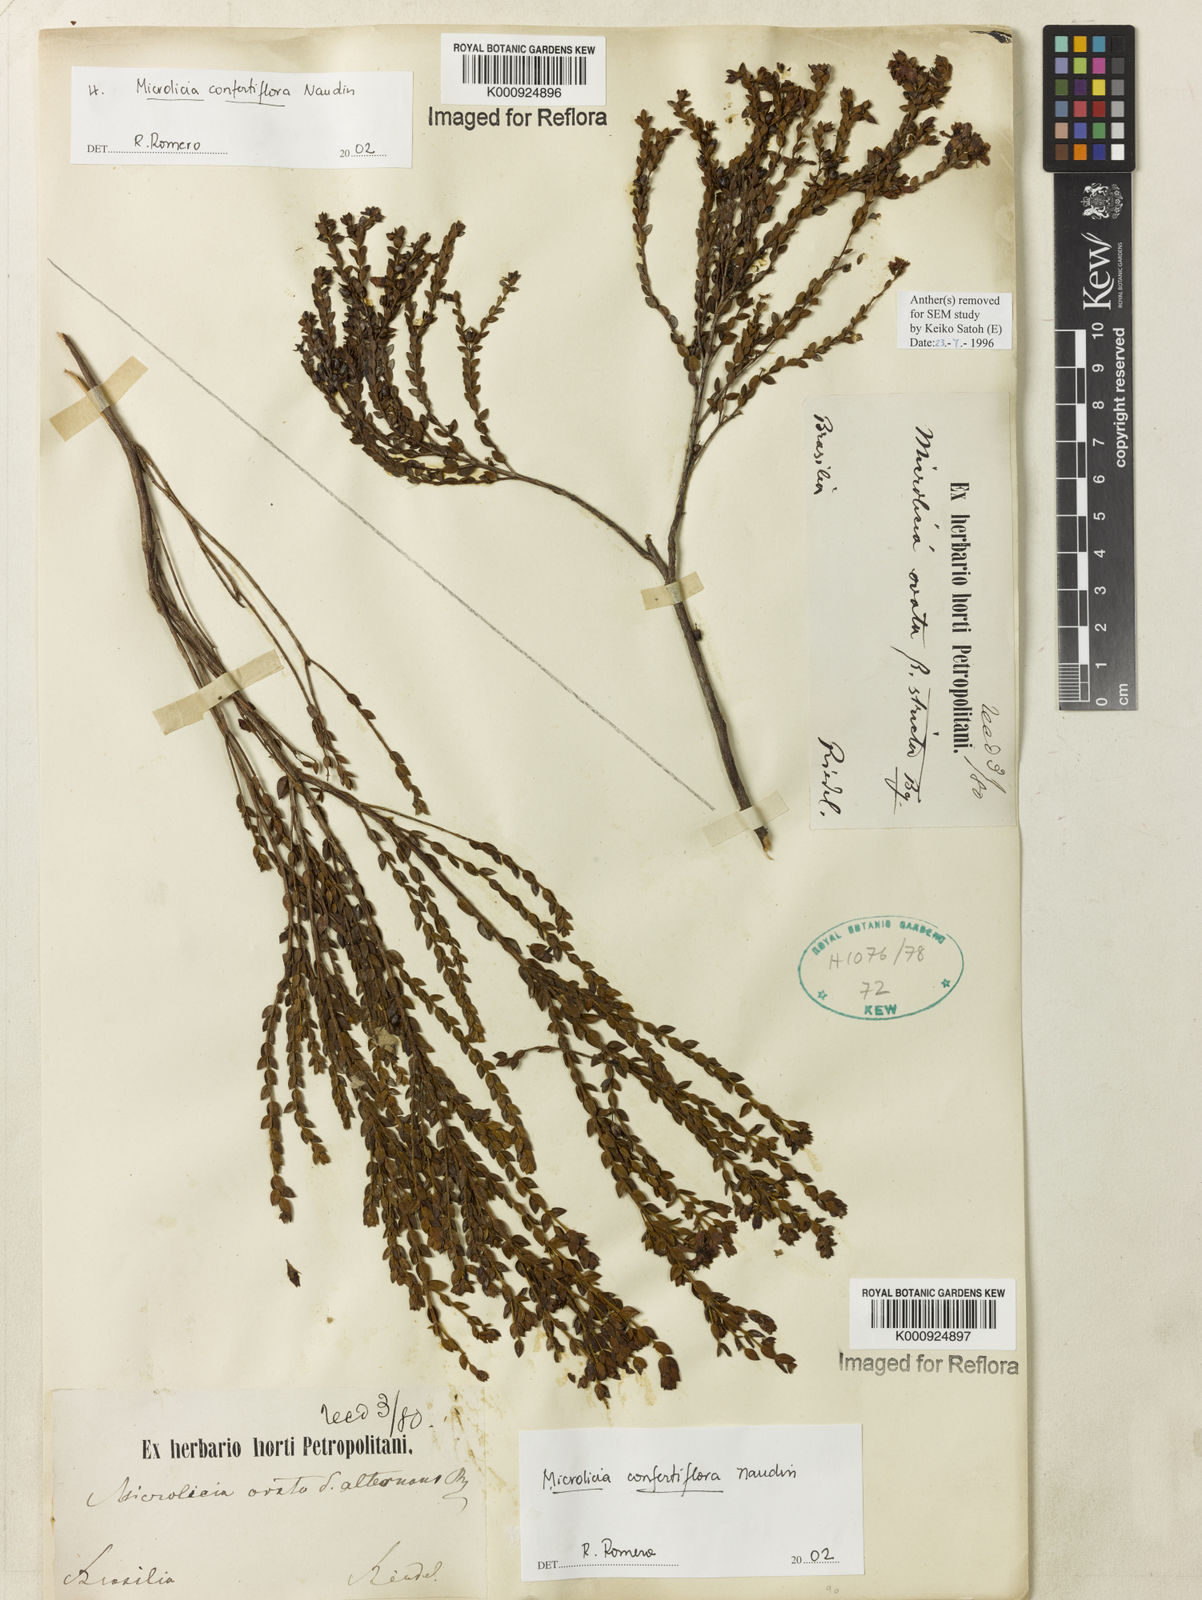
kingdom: Plantae
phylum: Tracheophyta
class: Magnoliopsida
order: Myrtales
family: Melastomataceae
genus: Microlicia
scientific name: Microlicia confertiflora
